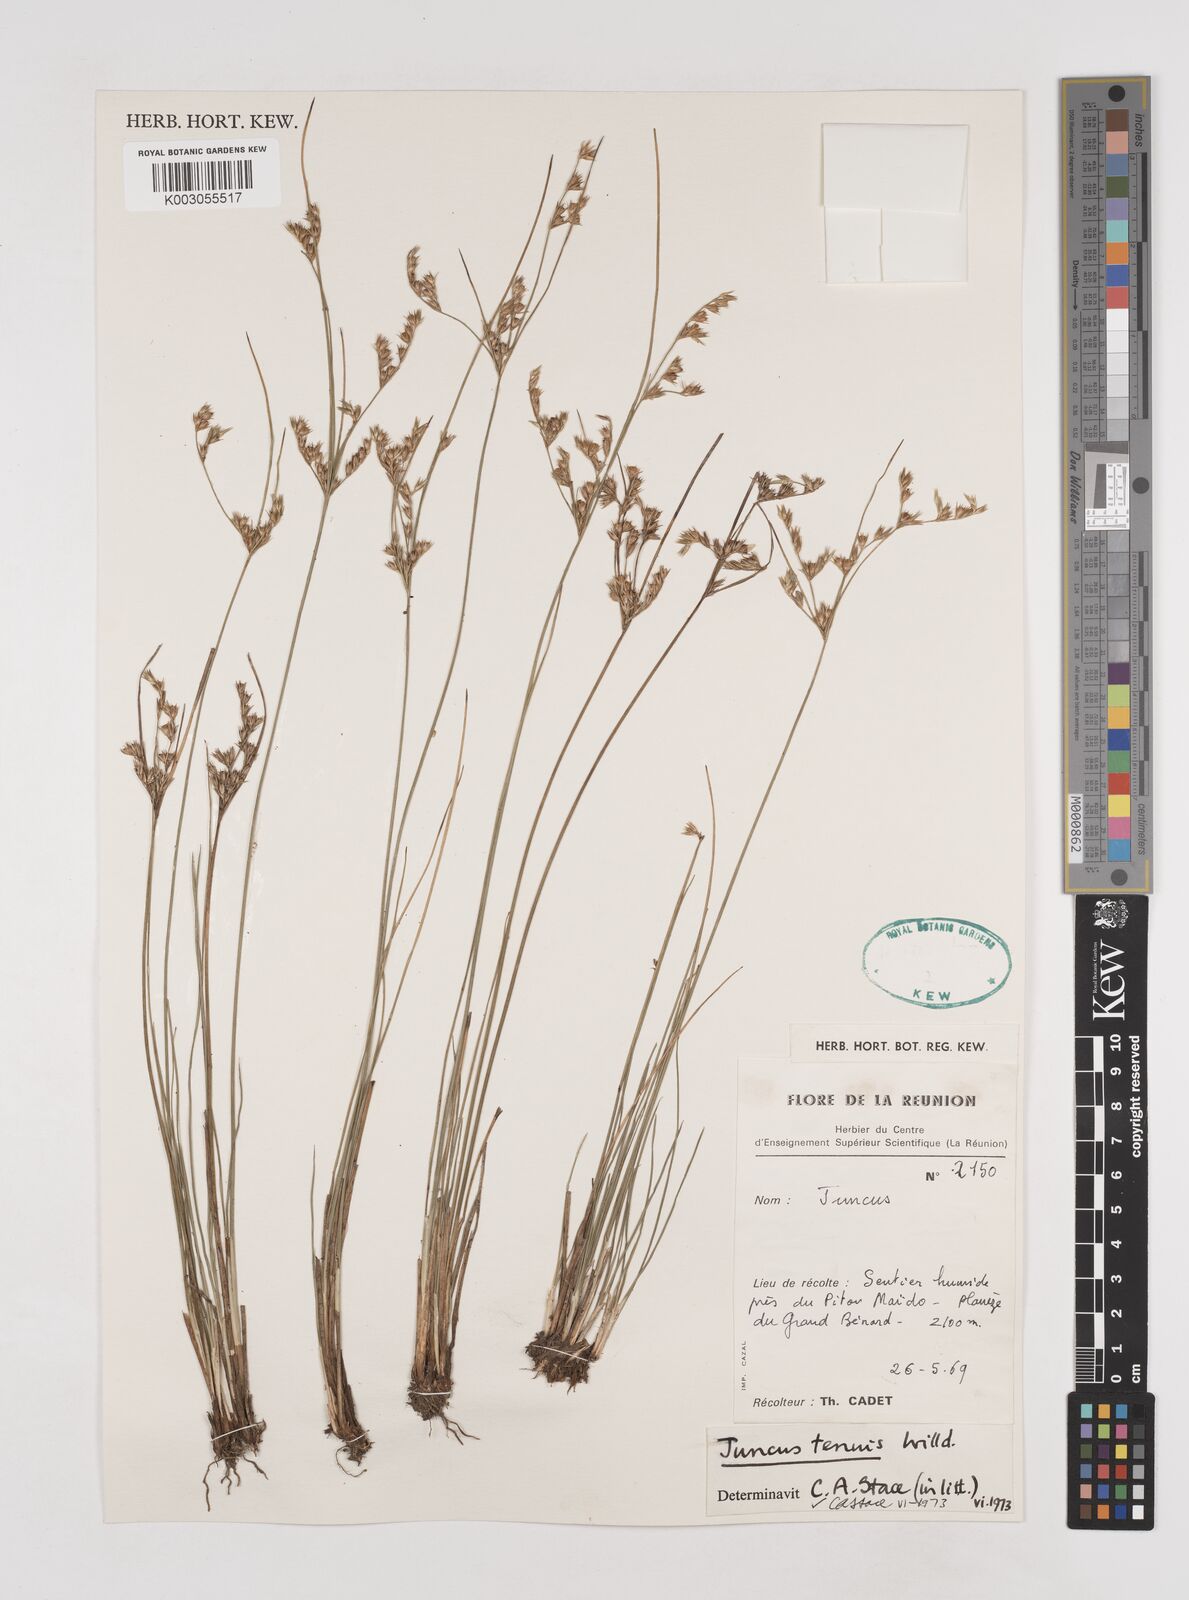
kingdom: Plantae
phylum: Tracheophyta
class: Liliopsida
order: Poales
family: Juncaceae
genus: Juncus
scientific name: Juncus tenuis
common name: Slender rush
